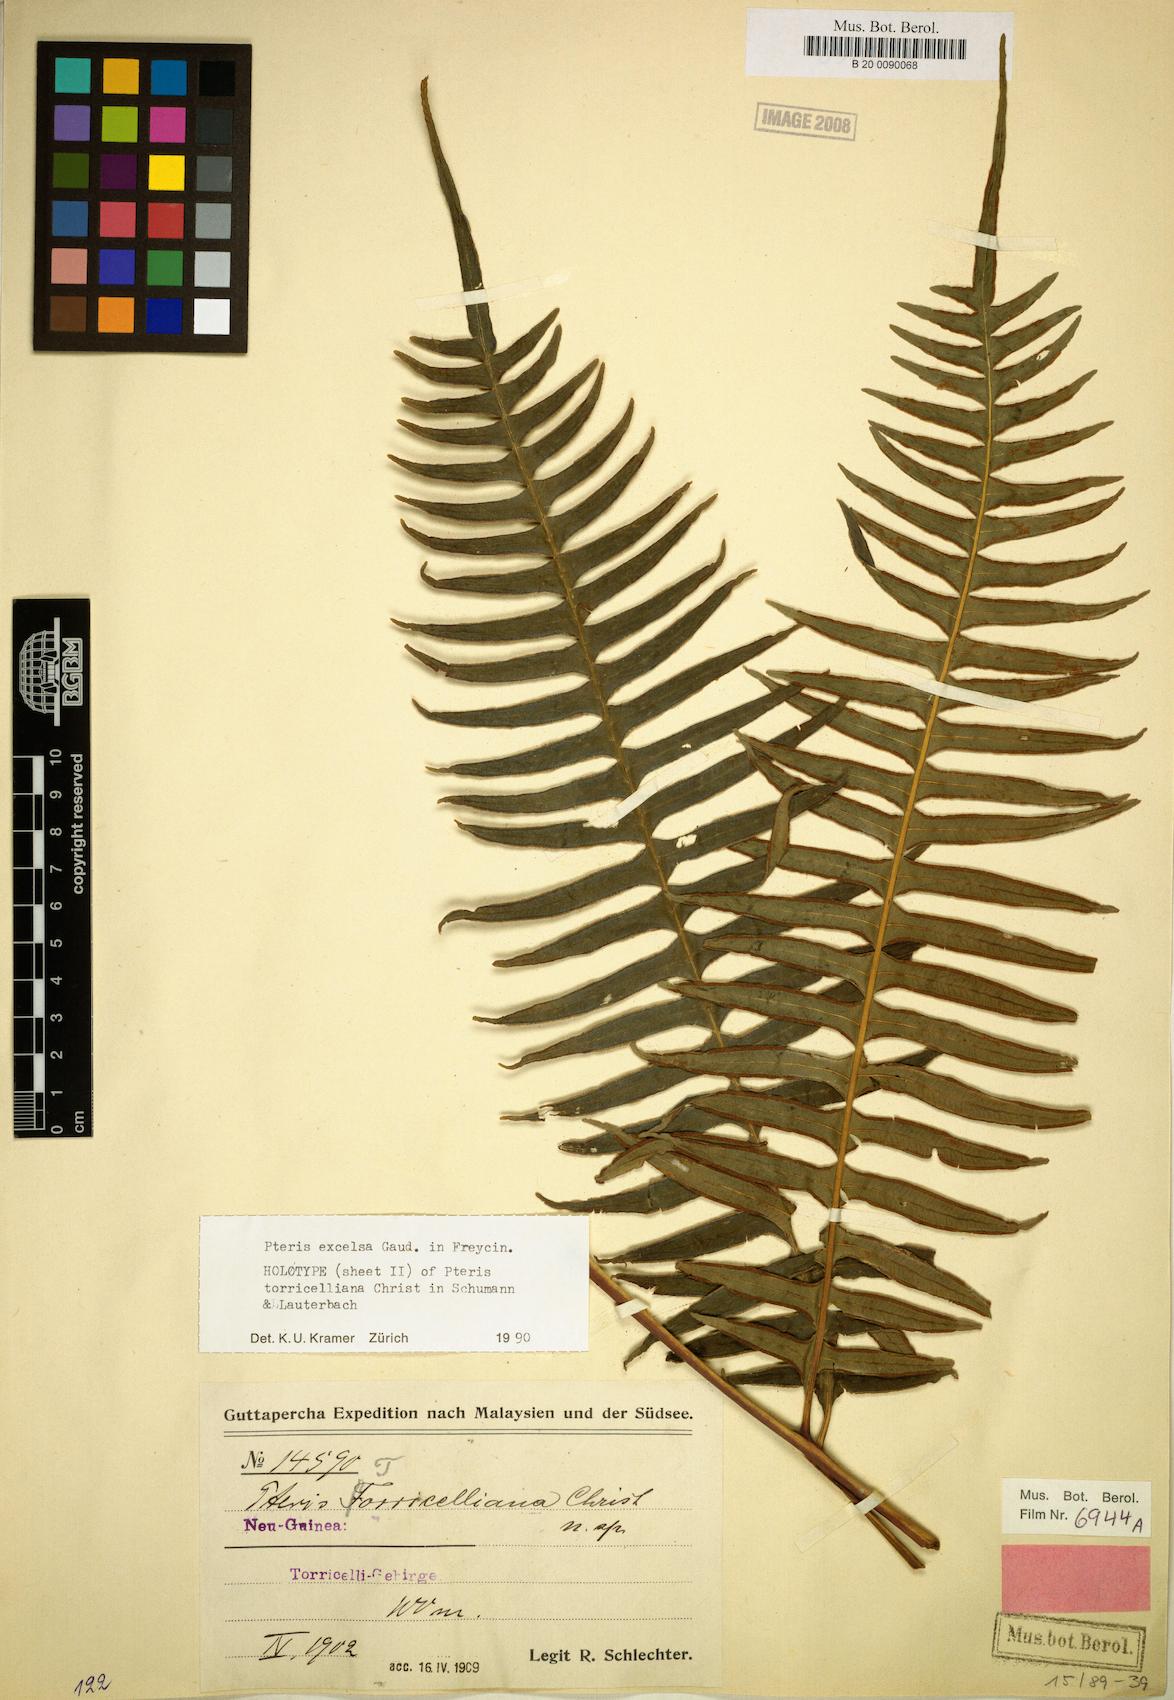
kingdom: Plantae
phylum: Tracheophyta
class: Polypodiopsida
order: Polypodiales
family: Pteridaceae
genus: Pteris
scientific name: Pteris terminalis
